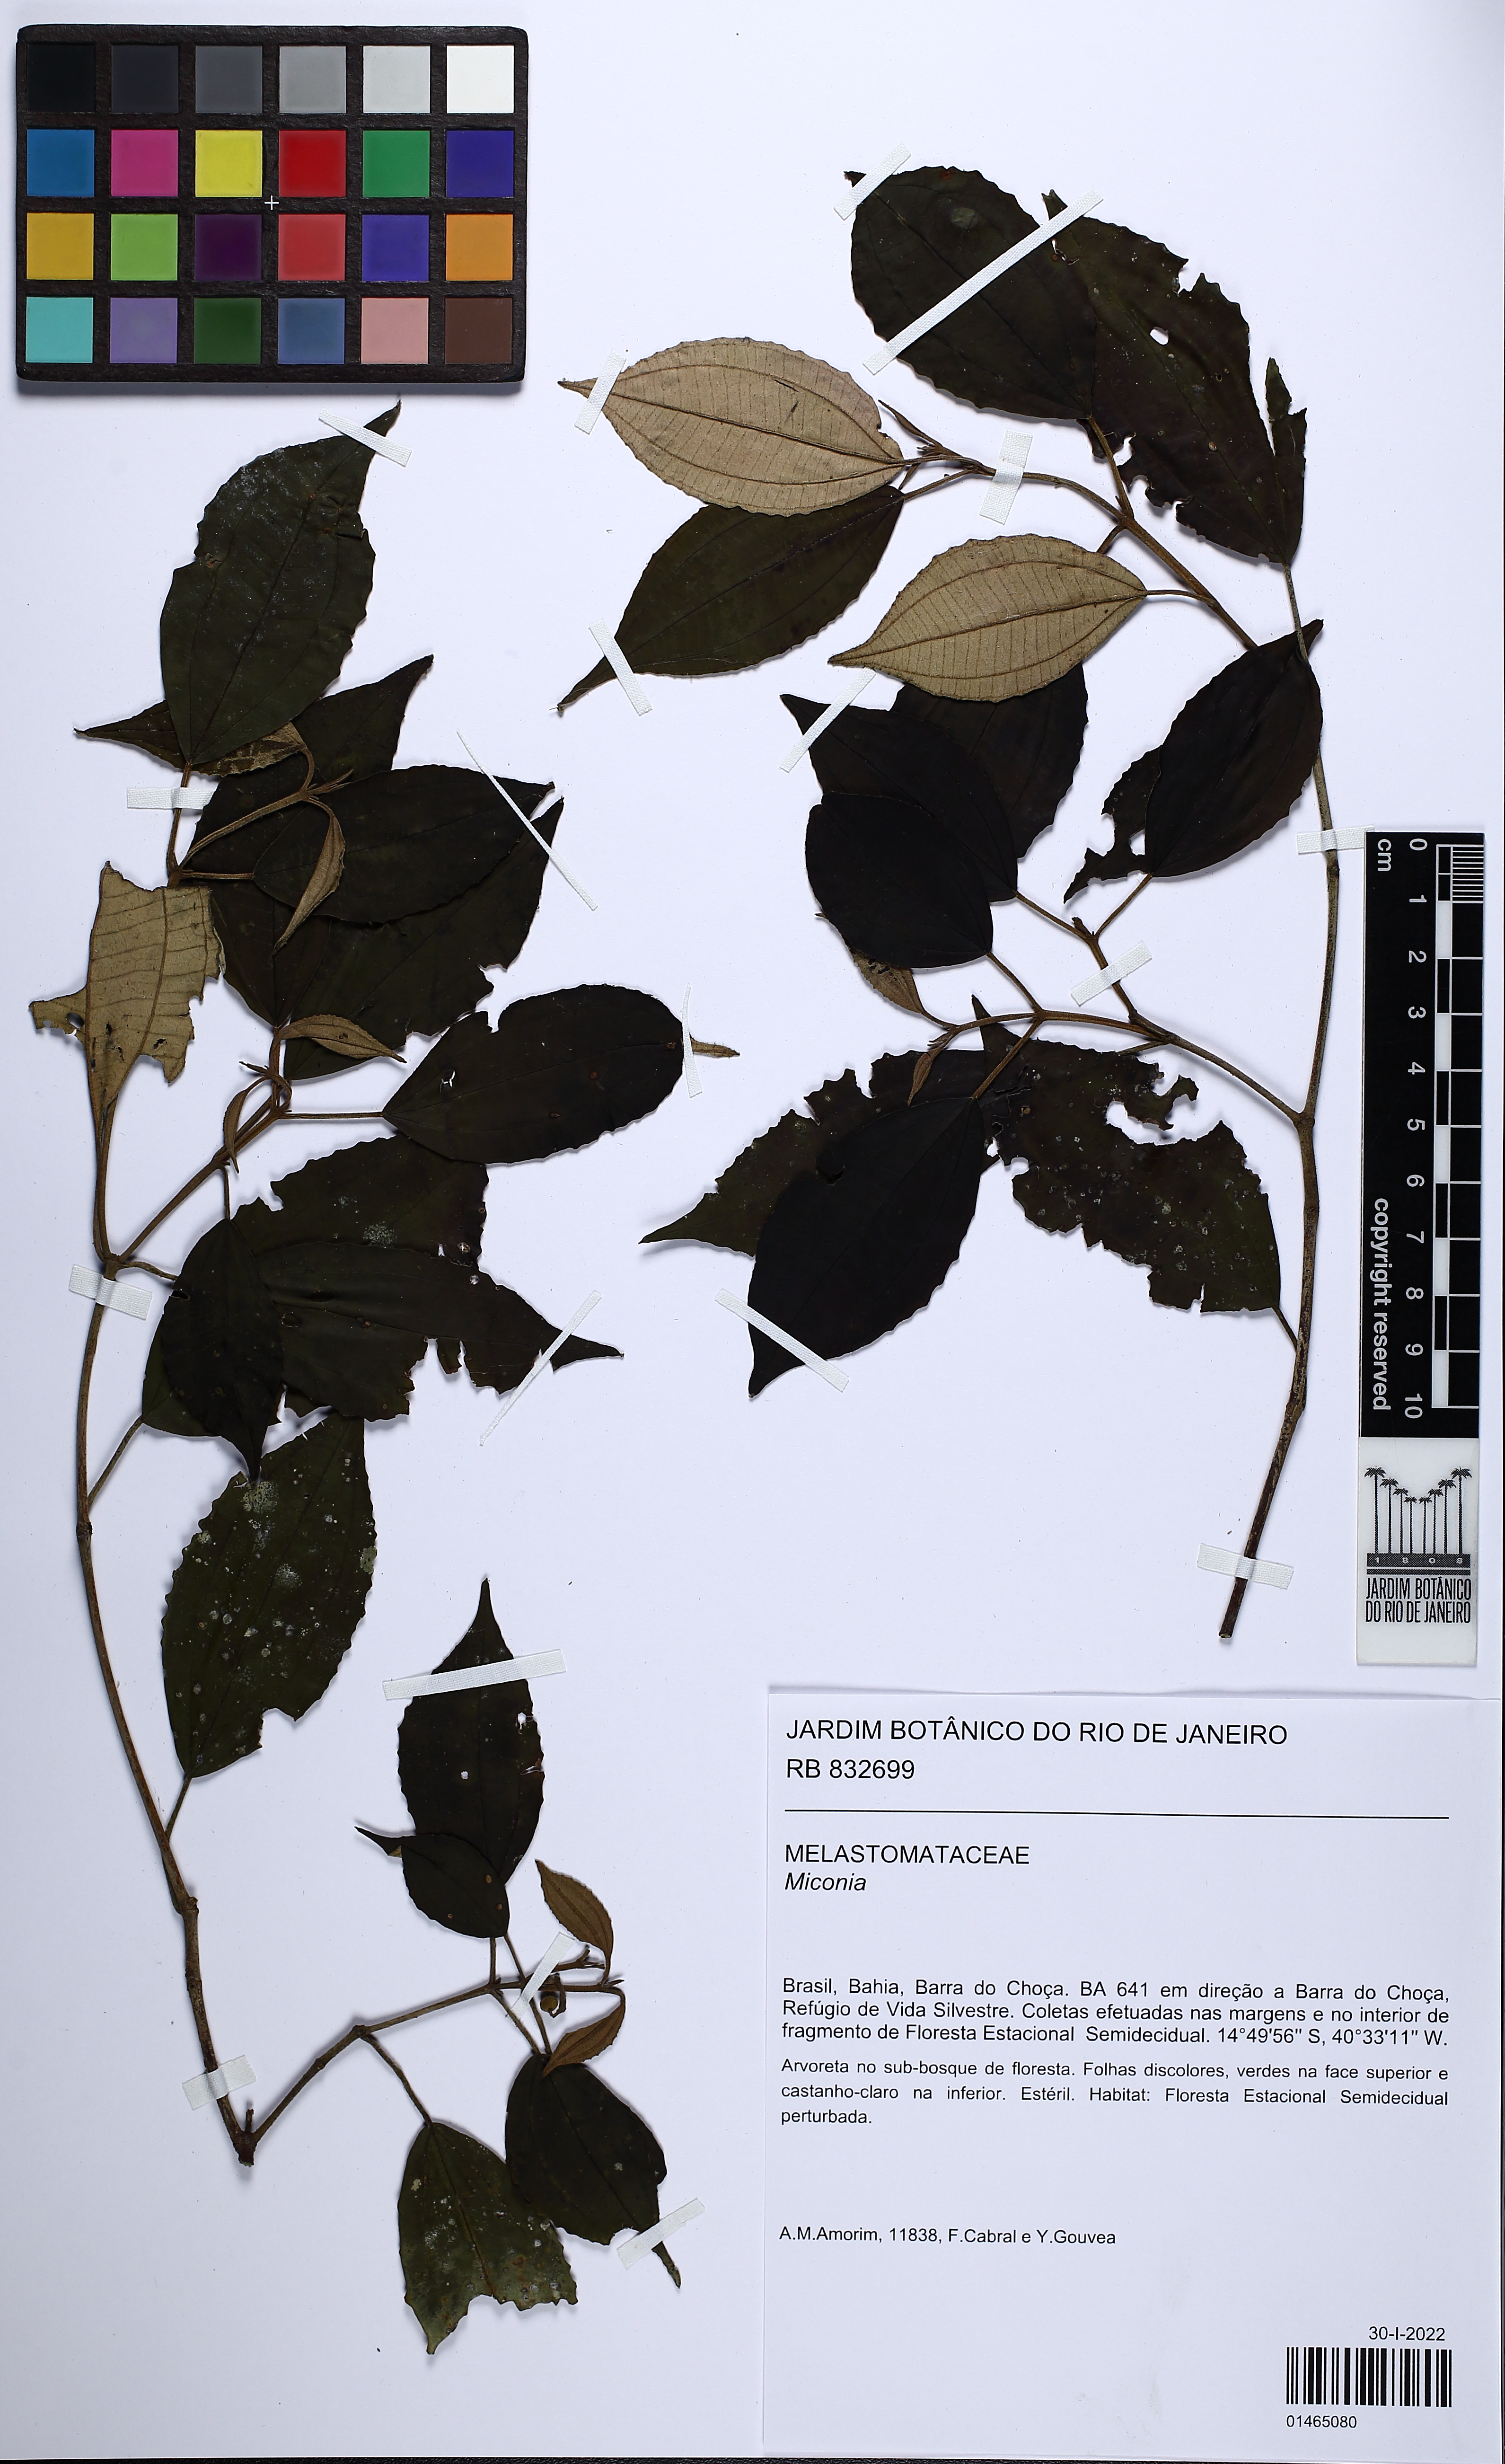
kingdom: Plantae
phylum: Tracheophyta
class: Magnoliopsida
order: Myrtales
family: Melastomataceae
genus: Miconia
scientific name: Miconia
